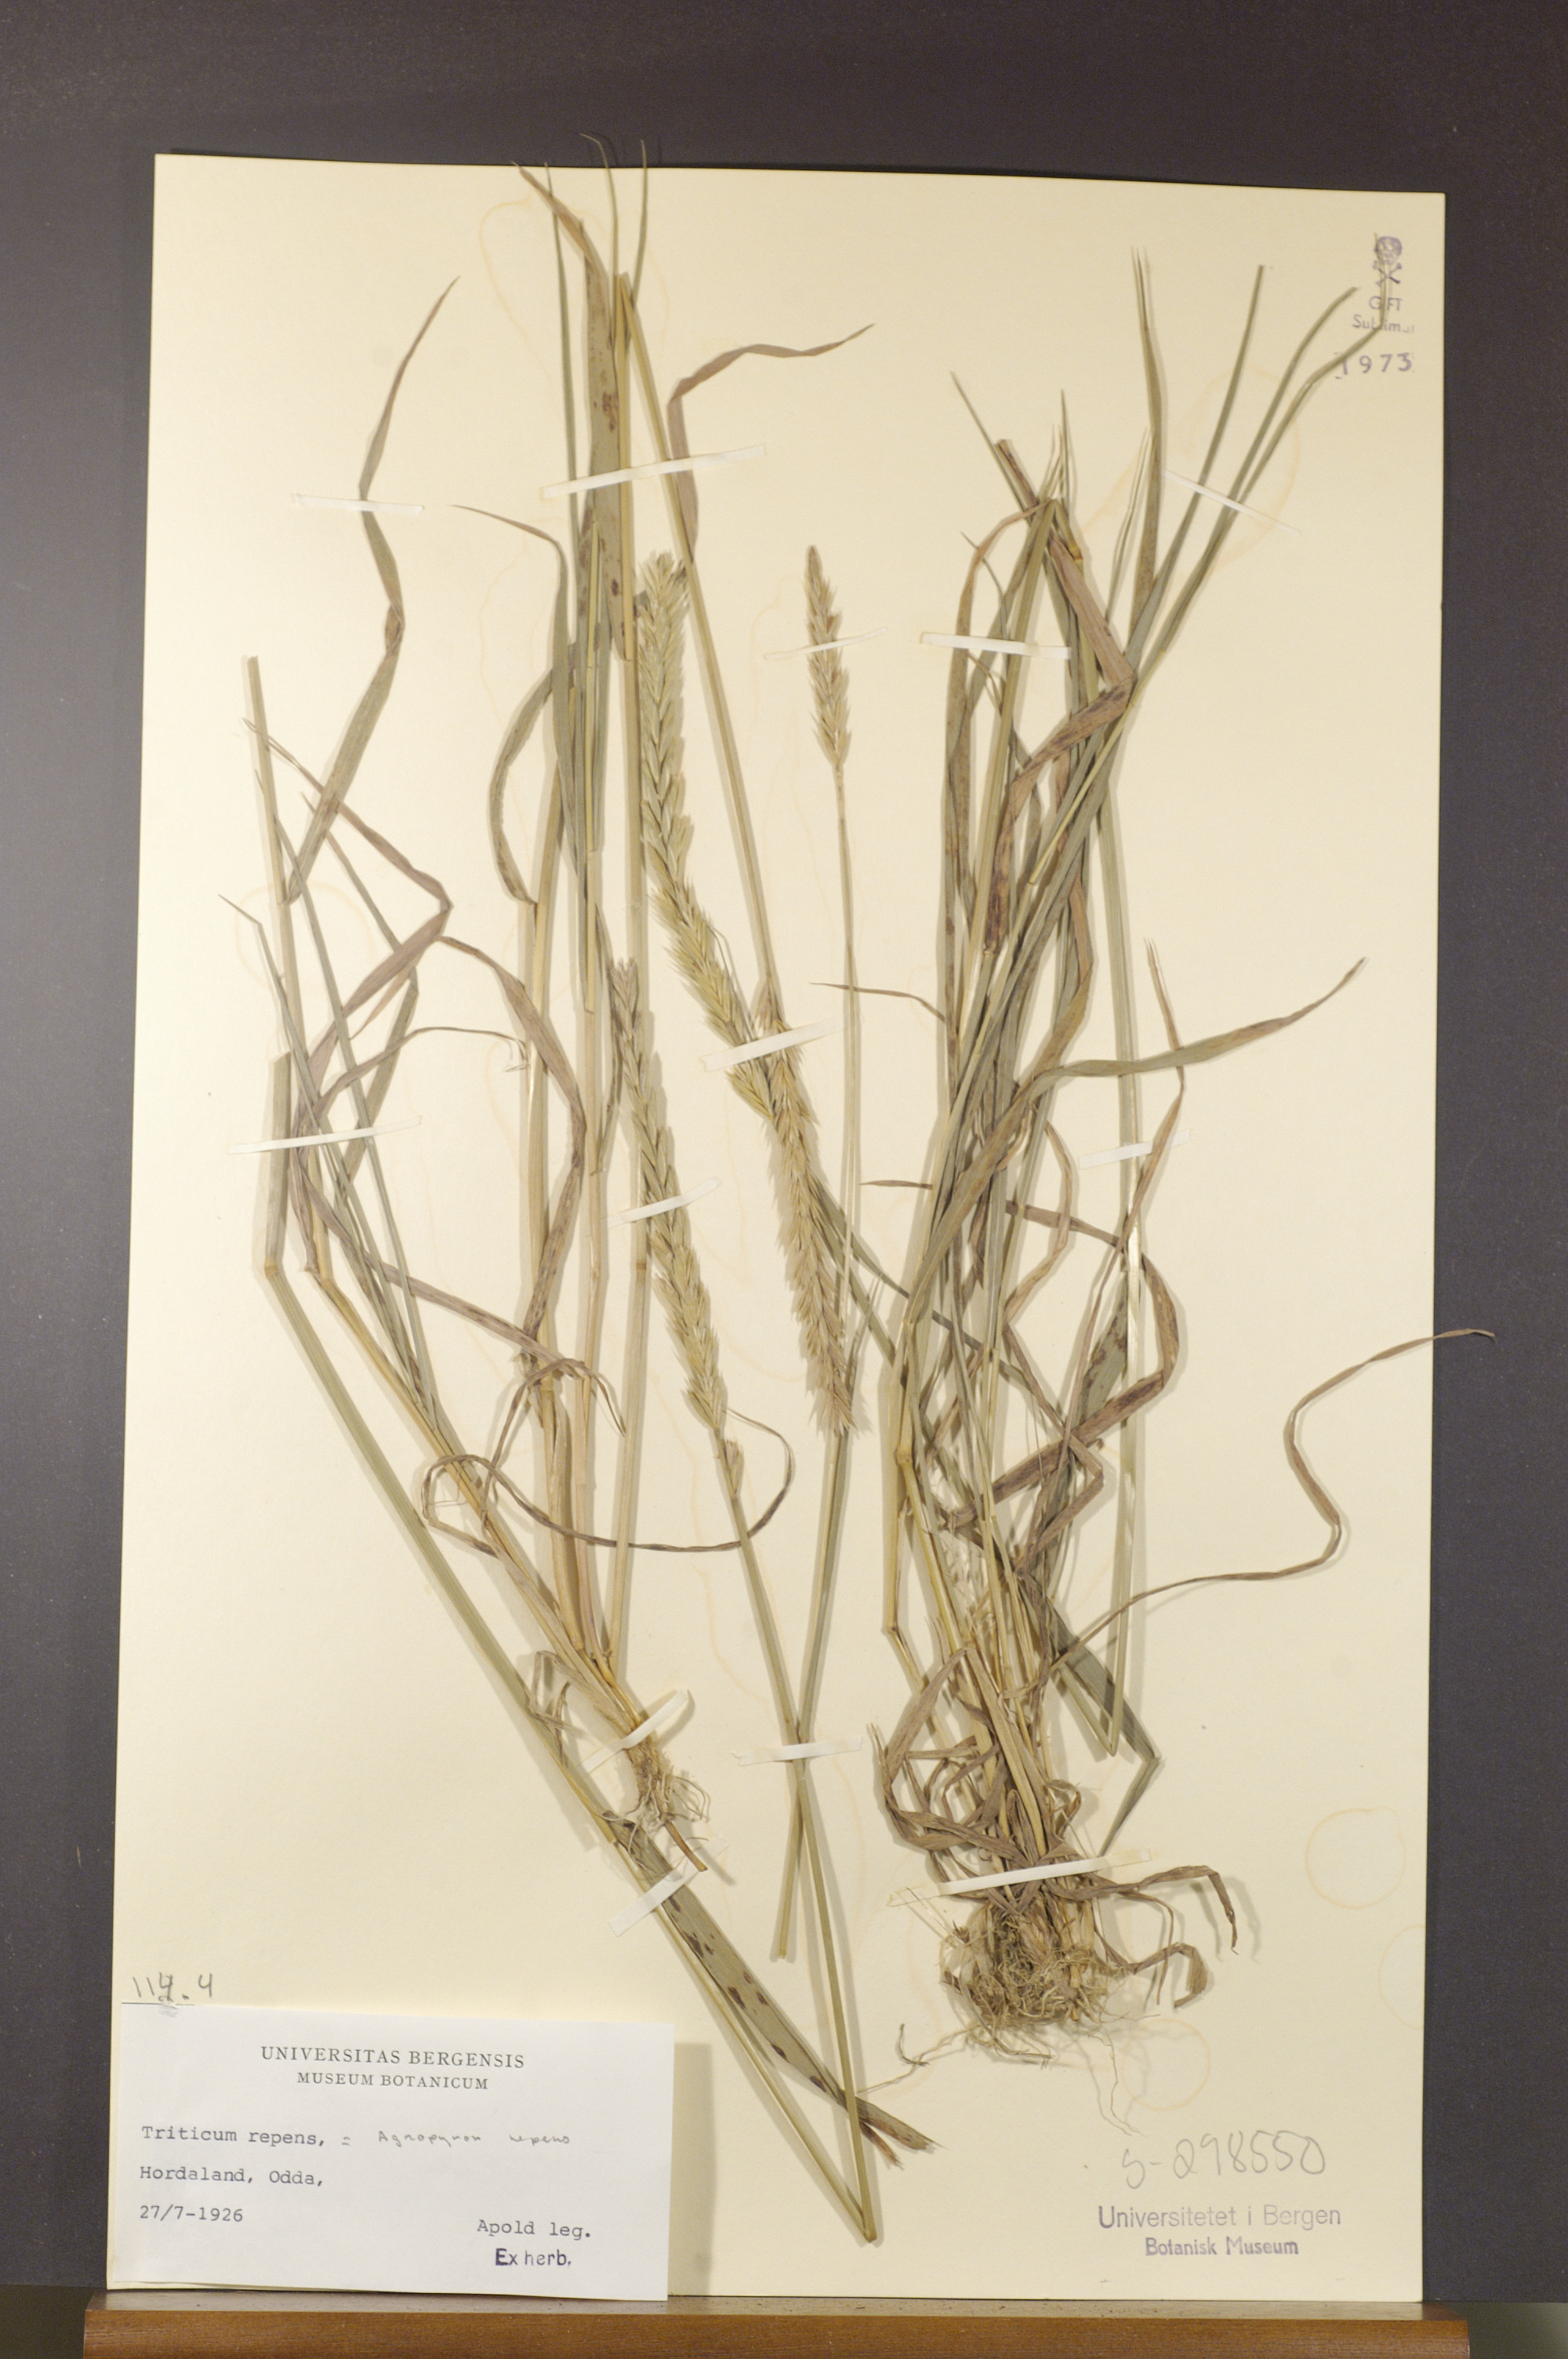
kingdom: Plantae
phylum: Tracheophyta
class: Liliopsida
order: Poales
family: Poaceae
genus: Elymus
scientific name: Elymus repens
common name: Quackgrass
